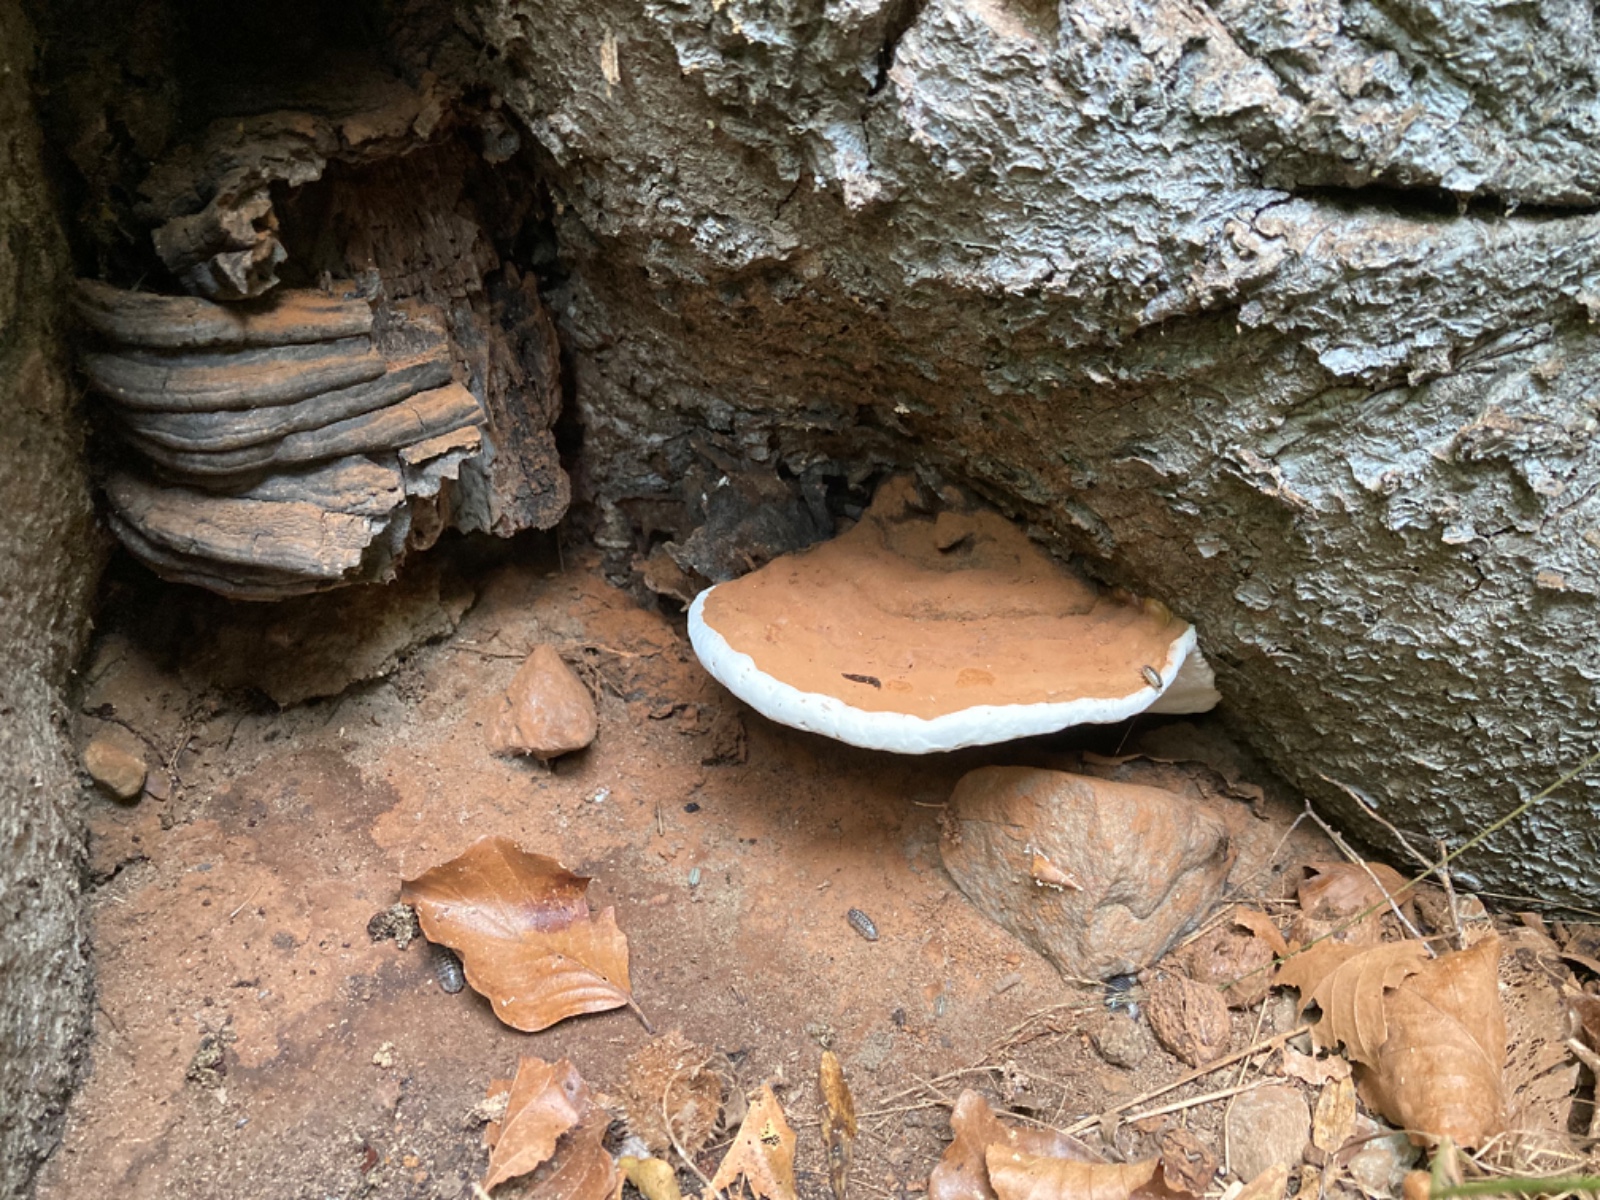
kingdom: Fungi
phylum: Basidiomycota
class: Agaricomycetes
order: Polyporales
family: Polyporaceae
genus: Ganoderma
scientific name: Ganoderma applanatum
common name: flad lakporesvamp
